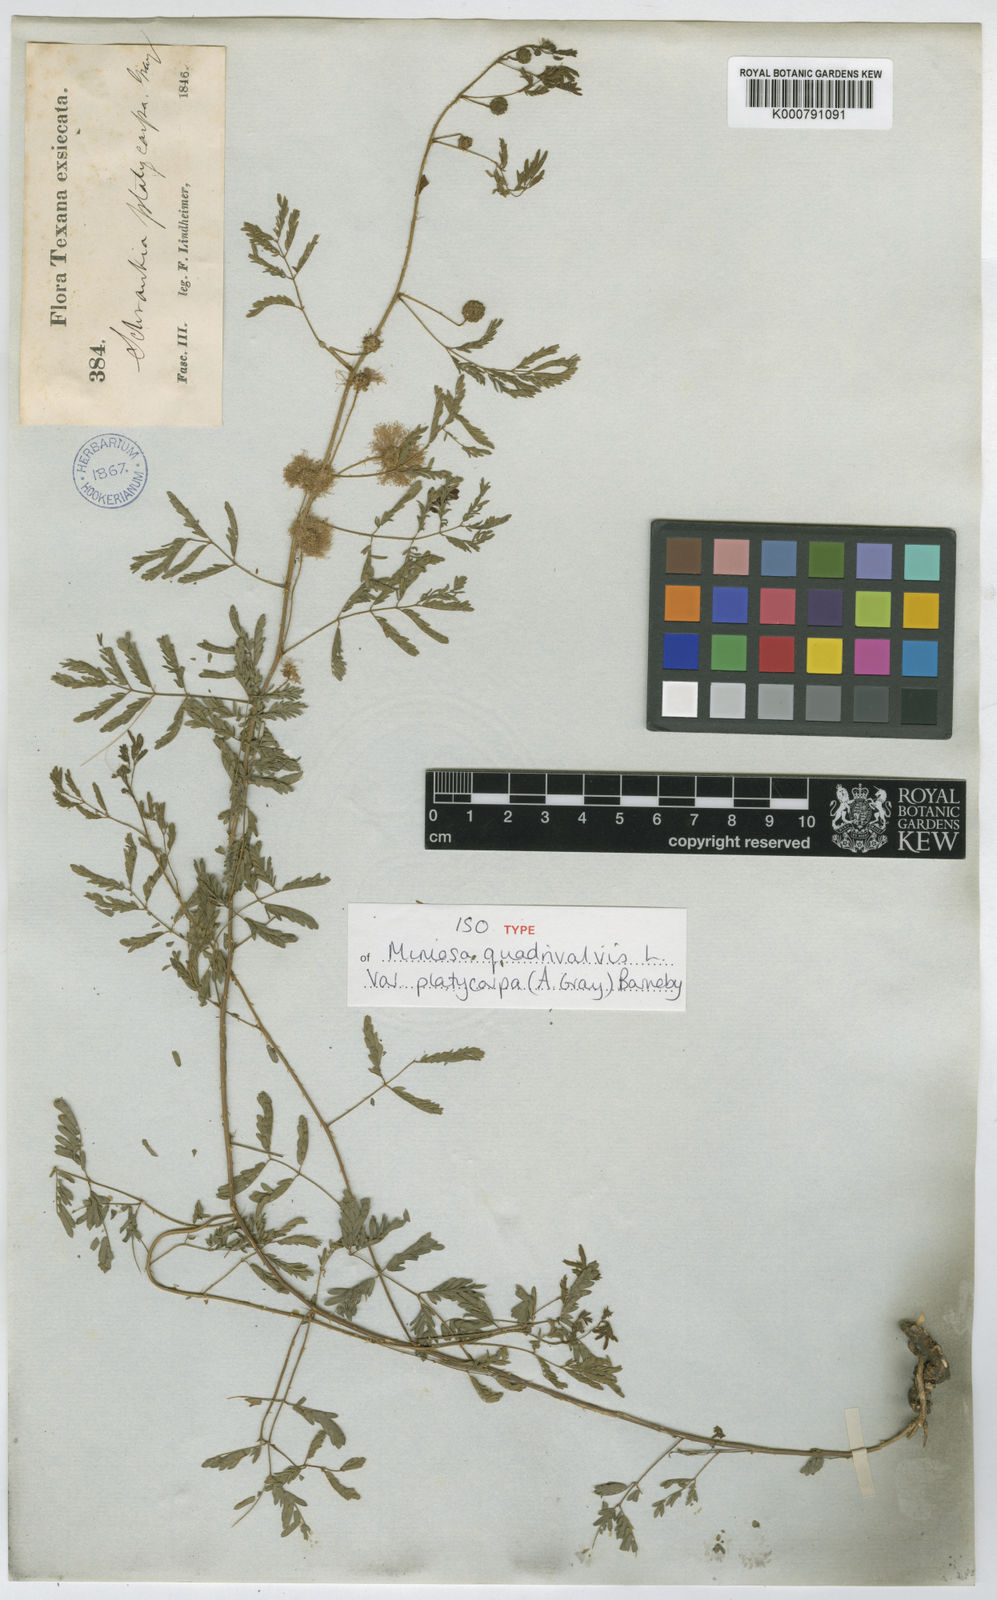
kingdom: Plantae
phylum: Tracheophyta
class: Magnoliopsida
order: Fabales
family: Fabaceae
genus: Mimosa
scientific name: Mimosa quadrivalvis
